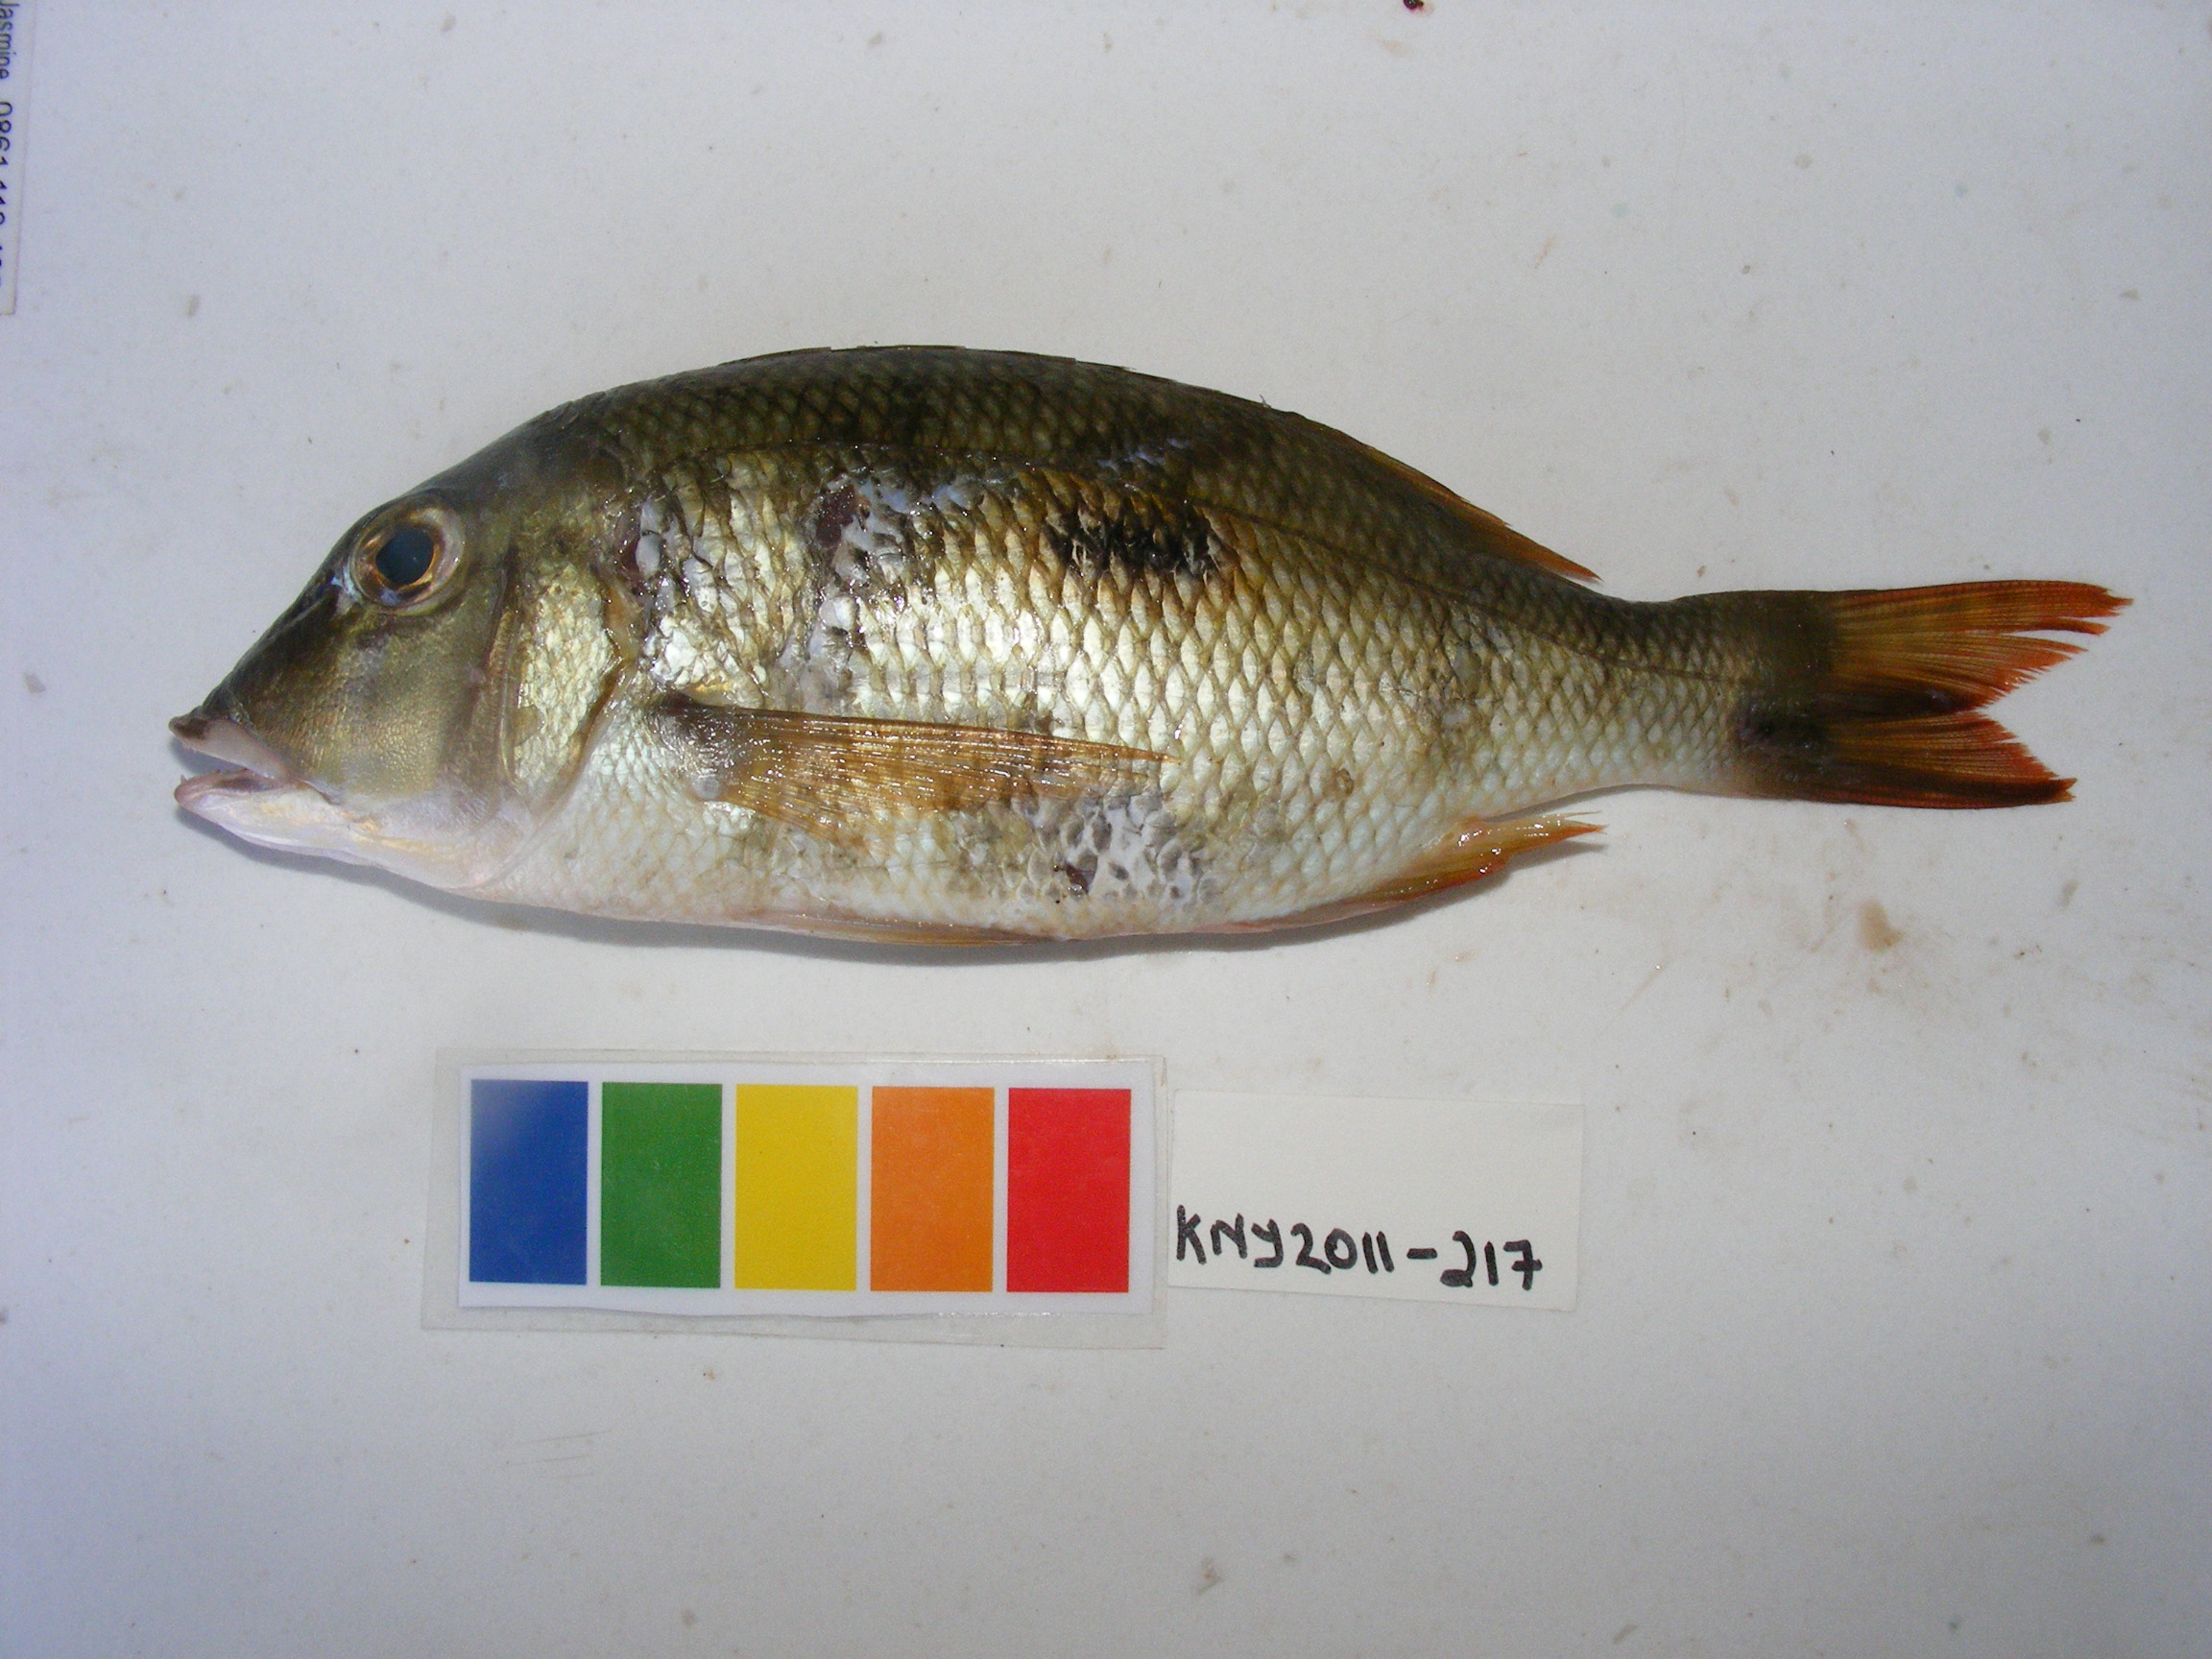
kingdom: Animalia
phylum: Chordata
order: Perciformes
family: Lethrinidae
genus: Lethrinus
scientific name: Lethrinus harak
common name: Blackspot emperor
